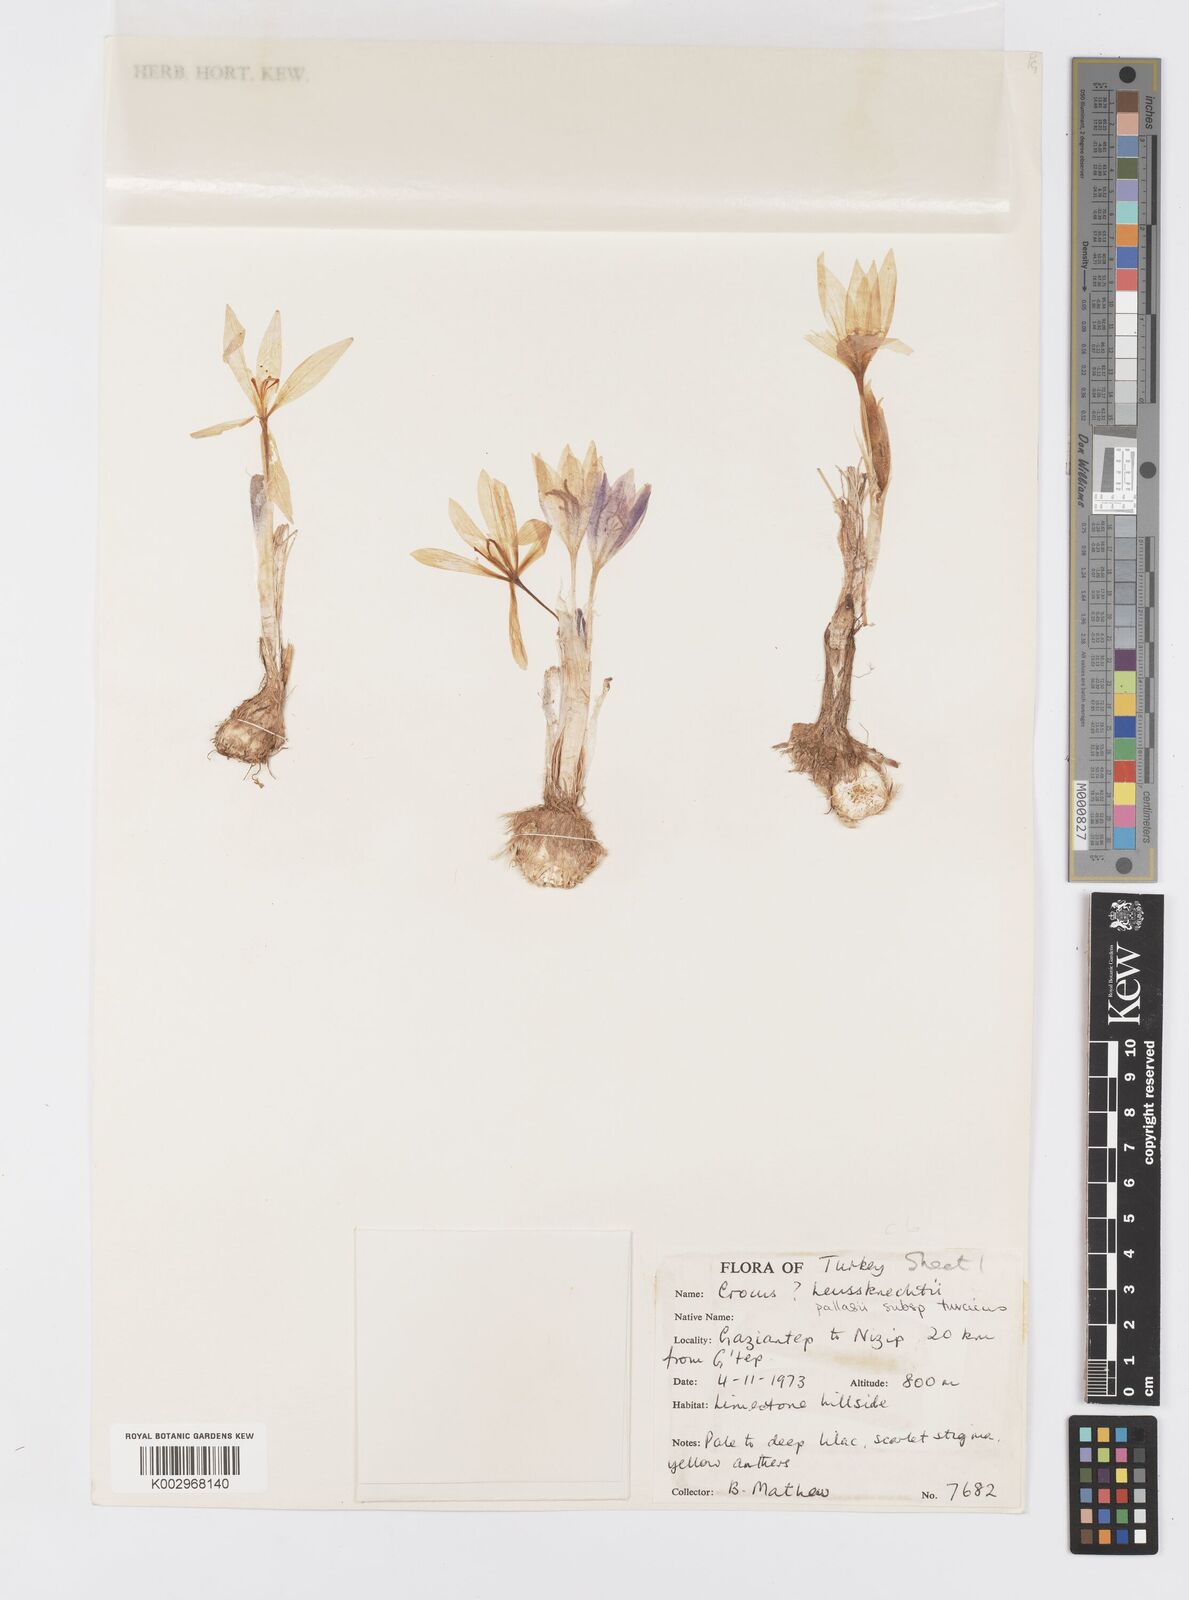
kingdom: Plantae
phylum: Tracheophyta
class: Liliopsida
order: Asparagales
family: Iridaceae
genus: Crocus
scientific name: Crocus turcicus
